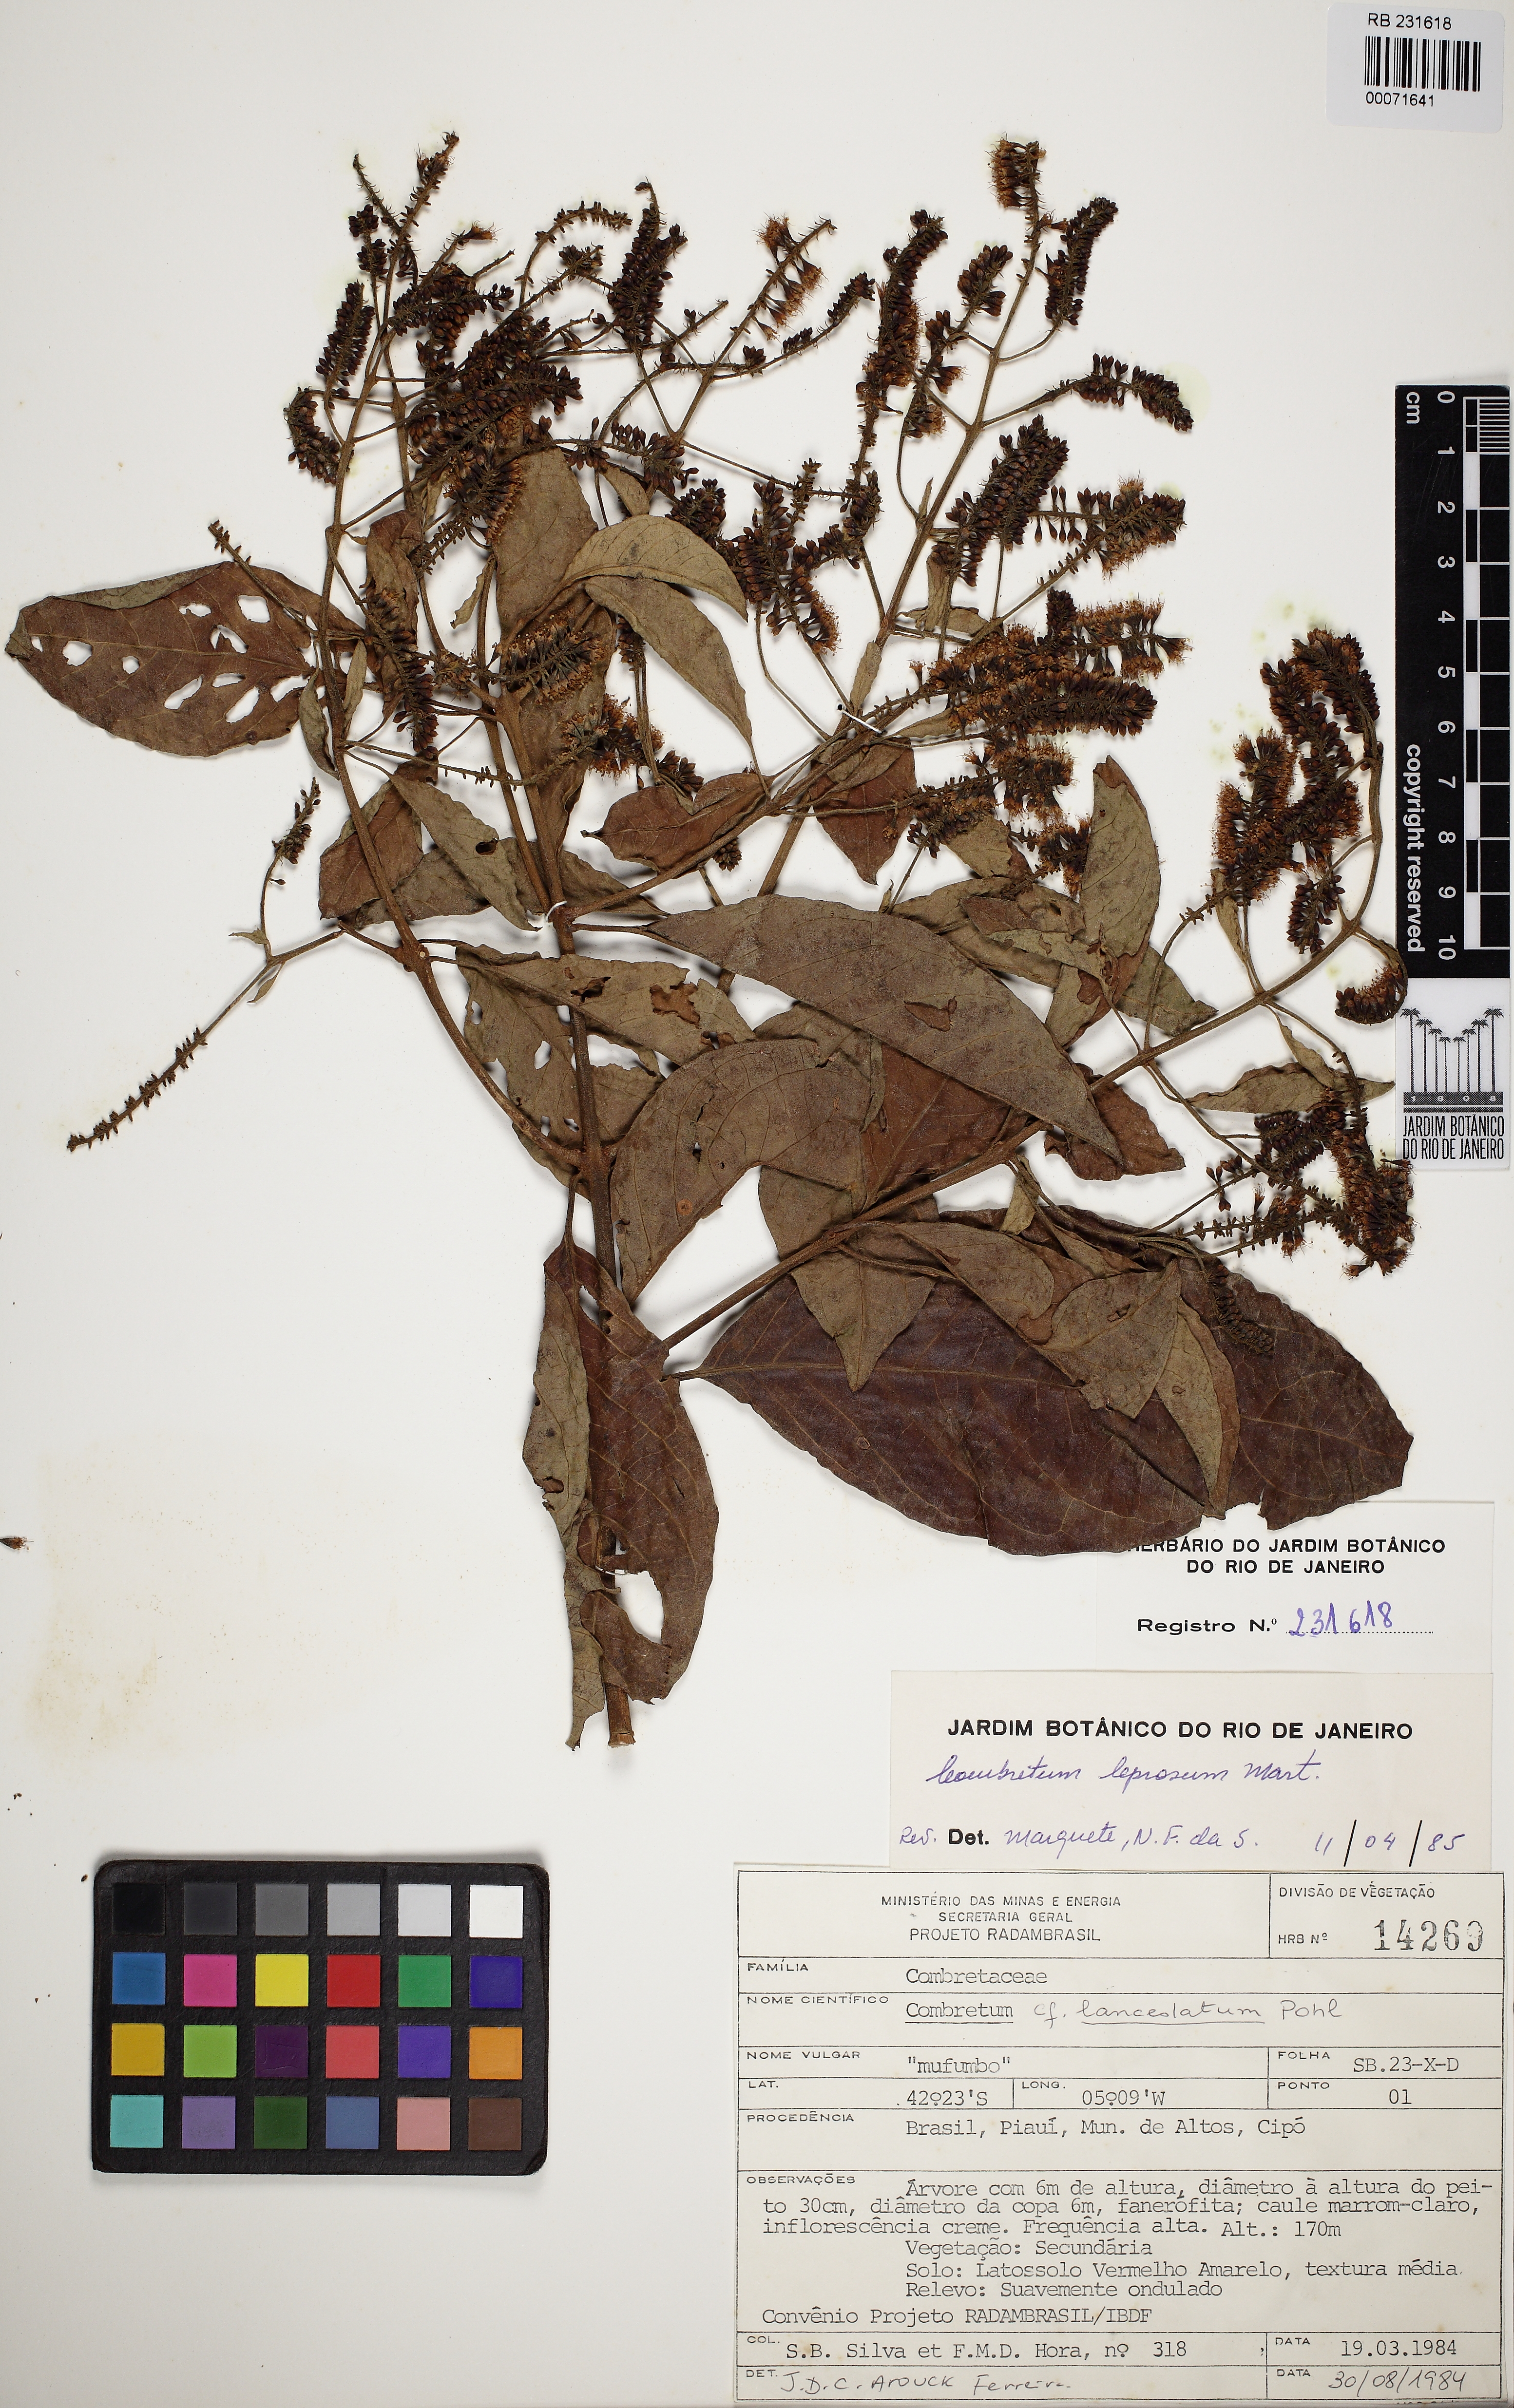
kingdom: Plantae
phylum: Tracheophyta
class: Magnoliopsida
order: Myrtales
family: Combretaceae
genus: Combretum
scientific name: Combretum leprosum
